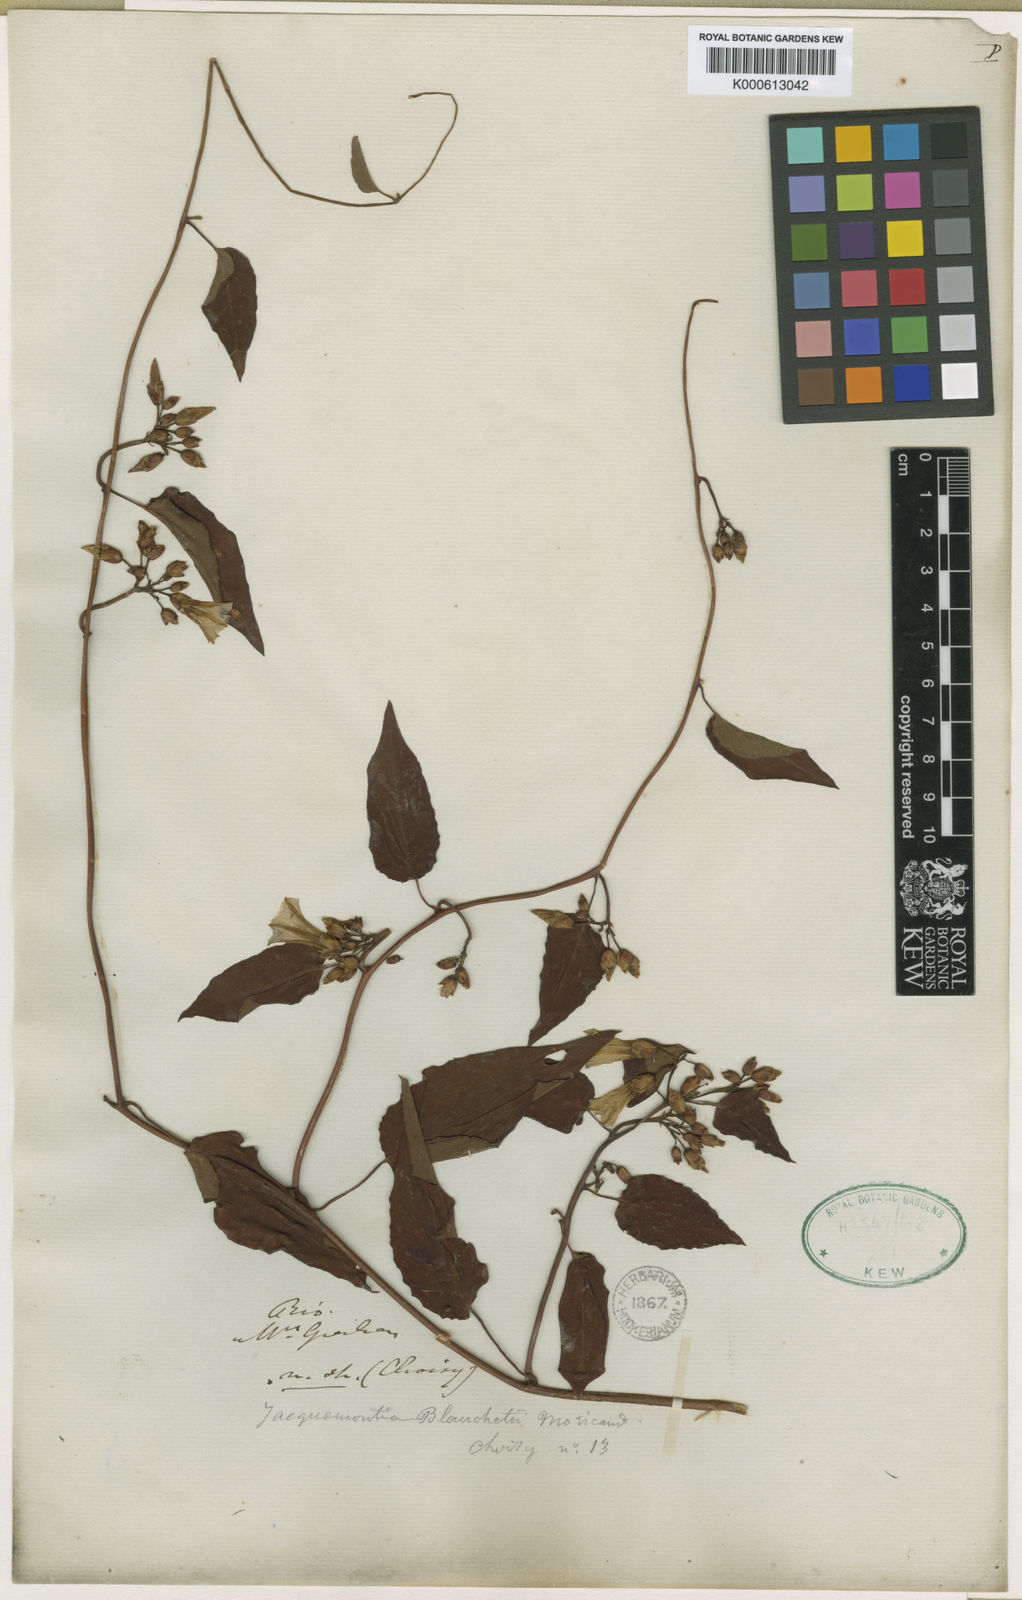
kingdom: Plantae
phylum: Tracheophyta
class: Magnoliopsida
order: Solanales
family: Convolvulaceae
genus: Jacquemontia
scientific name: Jacquemontia blanchetii
